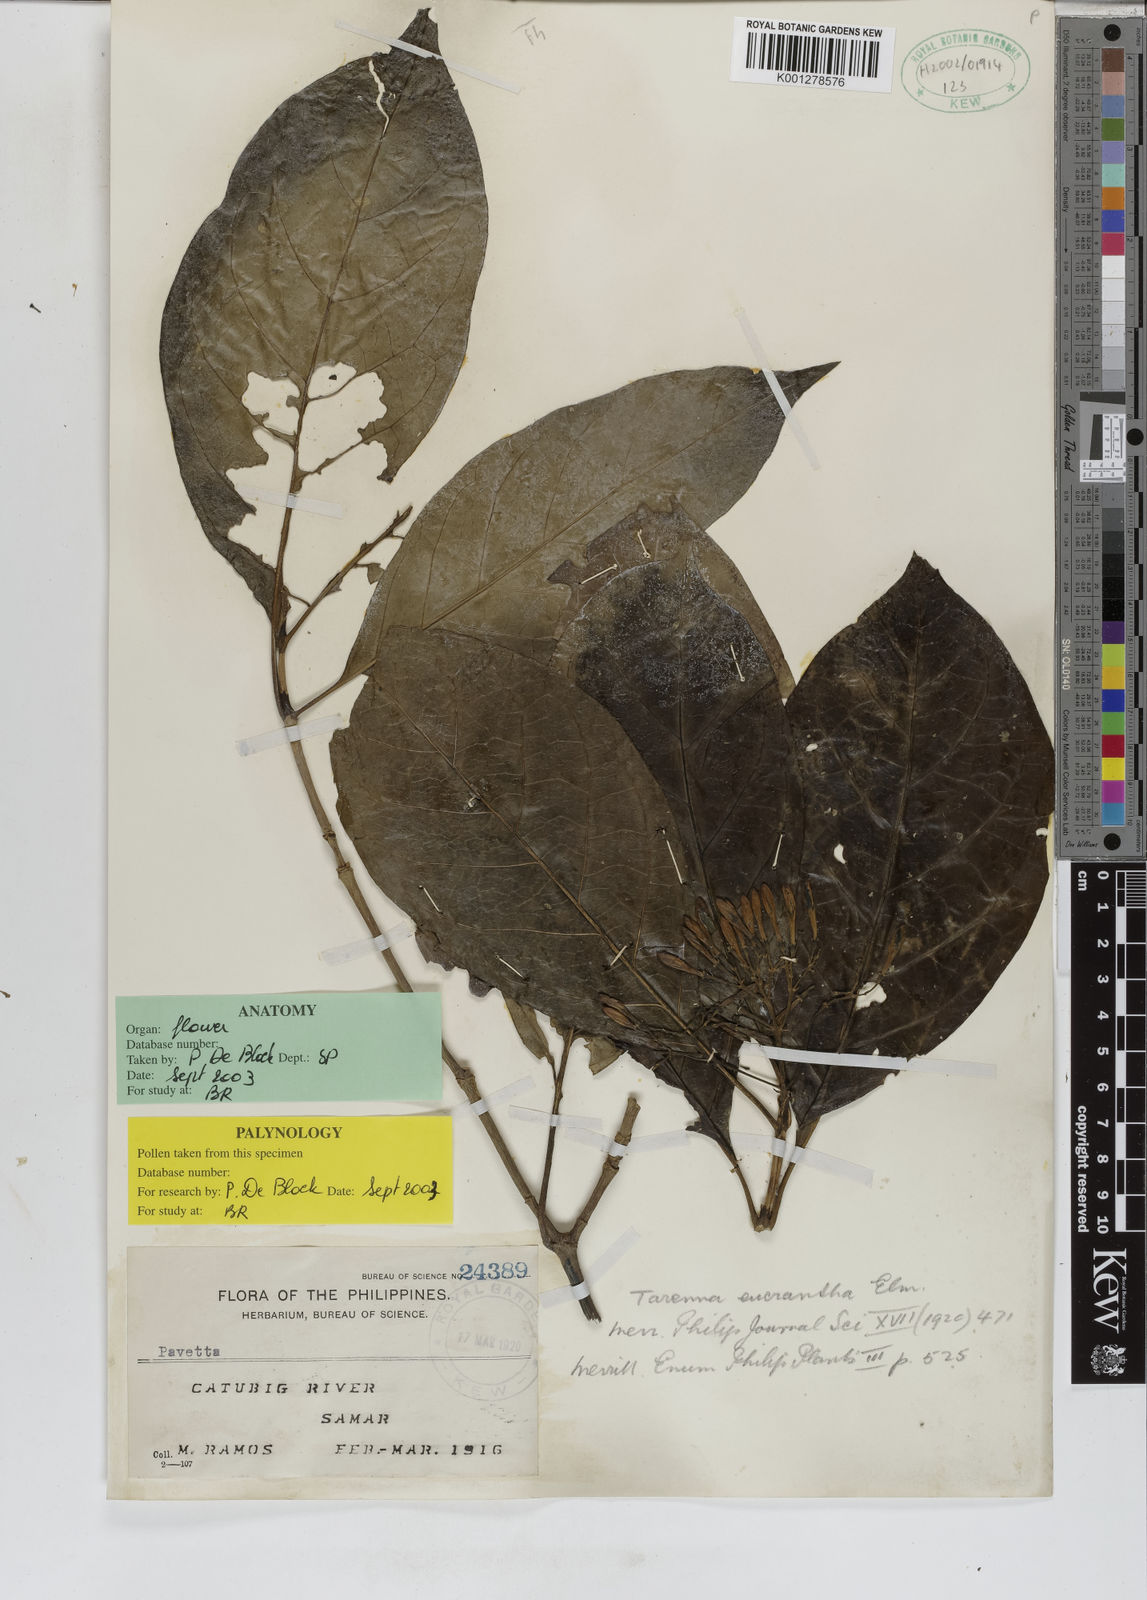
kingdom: Plantae
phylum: Tracheophyta
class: Magnoliopsida
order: Gentianales
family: Rubiaceae
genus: Tarenna
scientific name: Tarenna eucrantha
